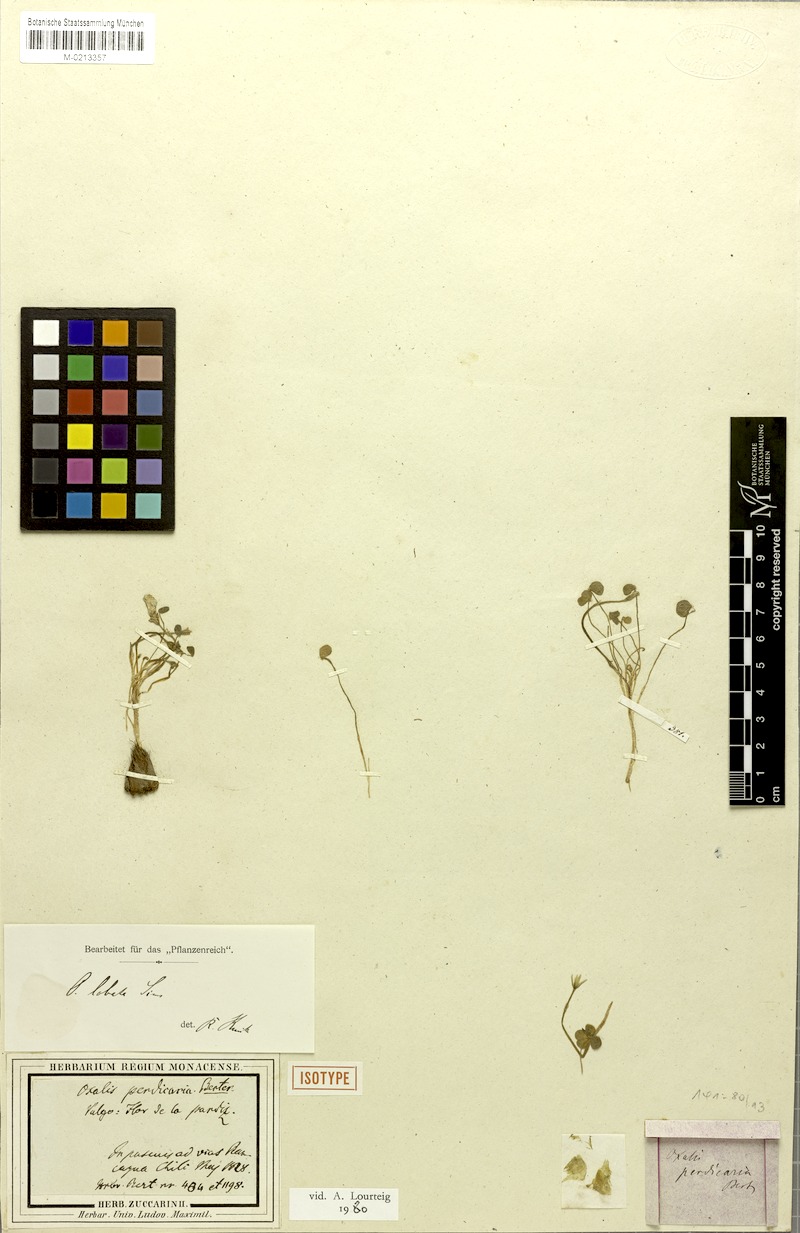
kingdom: Plantae
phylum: Tracheophyta
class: Magnoliopsida
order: Oxalidales
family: Oxalidaceae
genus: Oxalis
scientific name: Oxalis perdicaria
